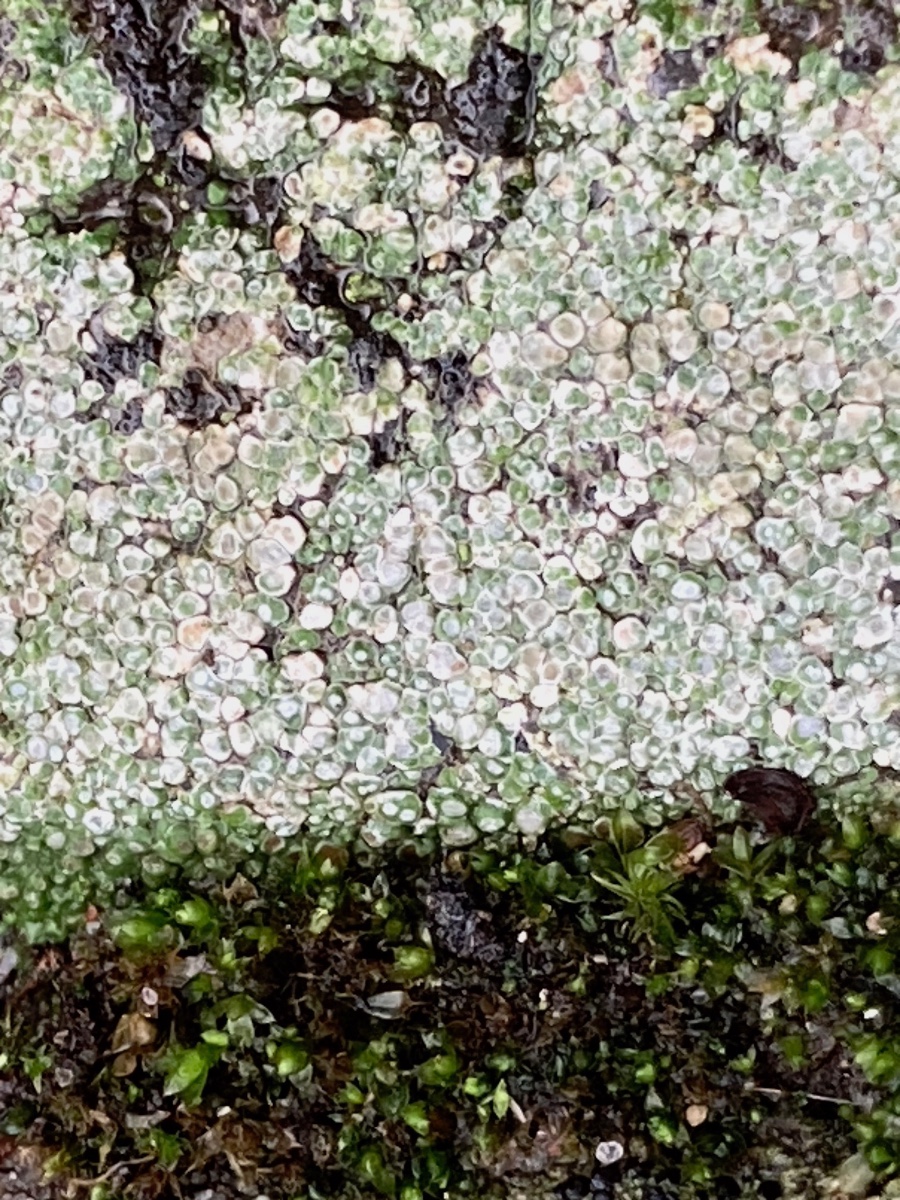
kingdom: Fungi
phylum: Ascomycota
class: Lecanoromycetes
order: Pertusariales
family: Megasporaceae
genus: Circinaria
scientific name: Circinaria contorta
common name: indviklet hulskivelav
